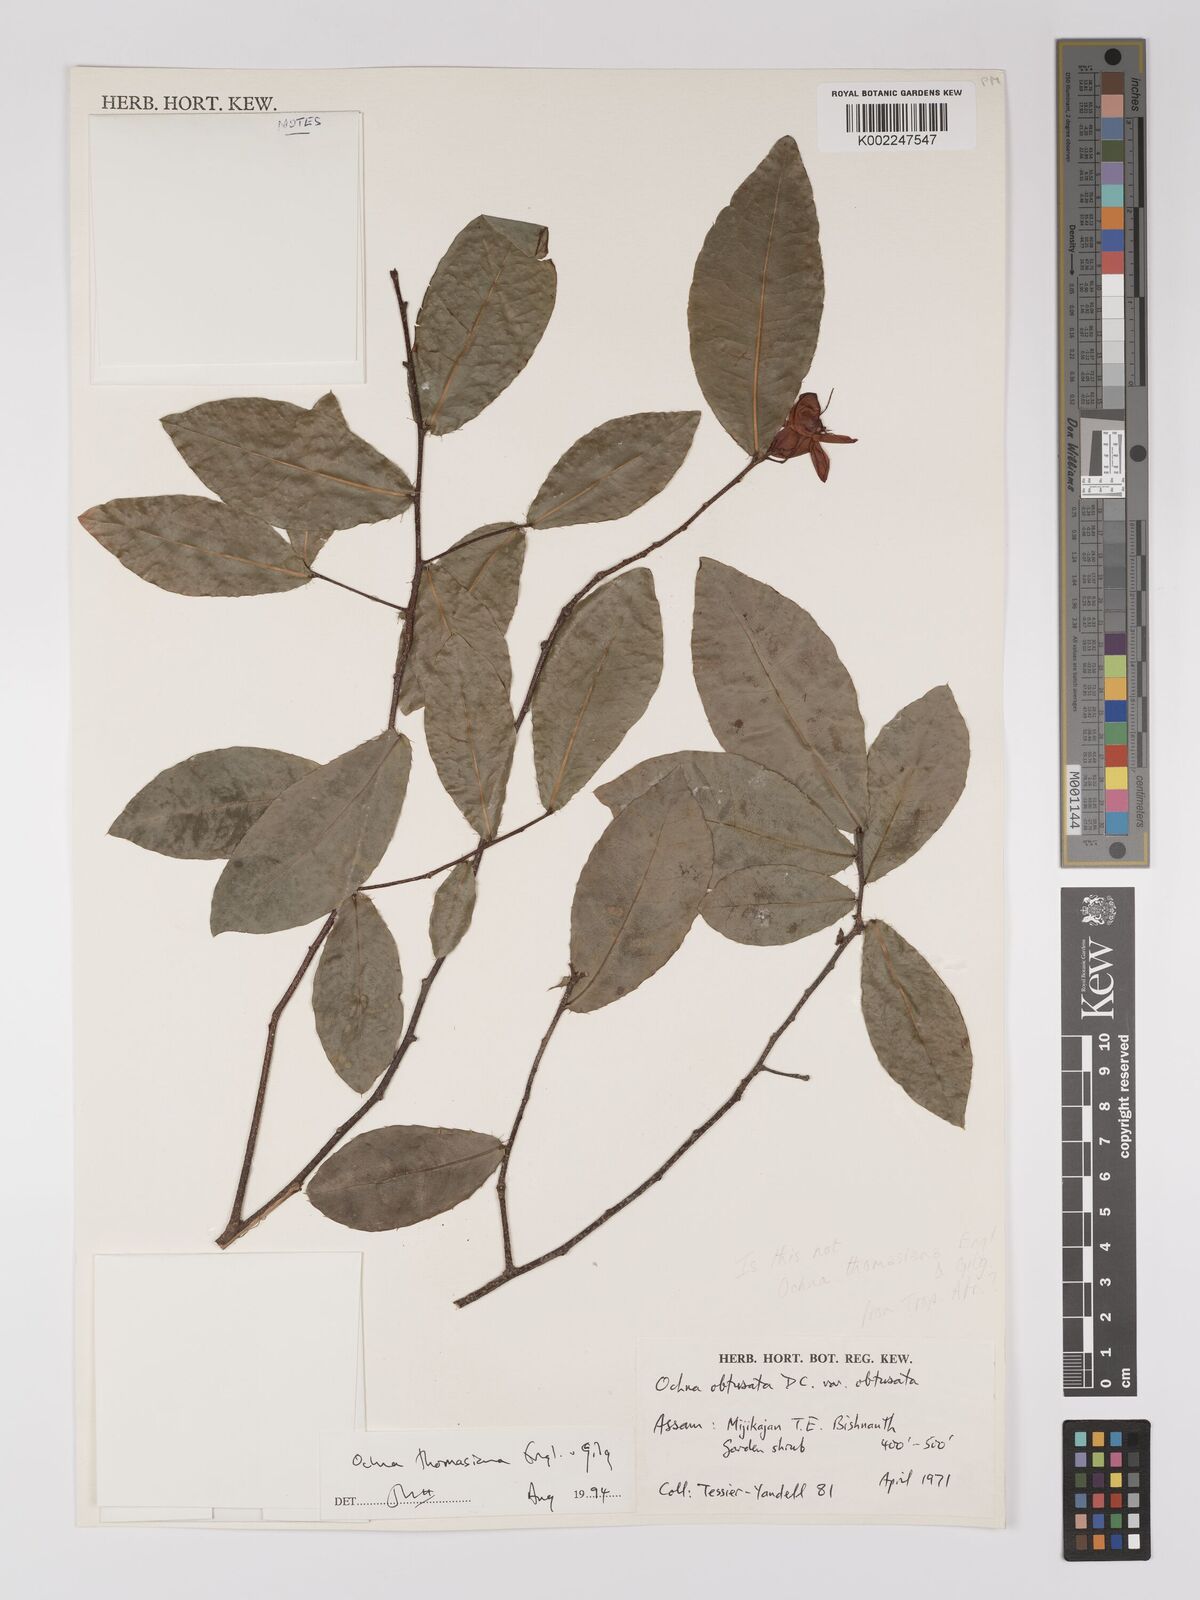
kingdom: Plantae
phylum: Tracheophyta
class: Magnoliopsida
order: Malpighiales
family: Ochnaceae
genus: Ochna
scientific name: Ochna thomasiana
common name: Thomas' bird's-eye bush
